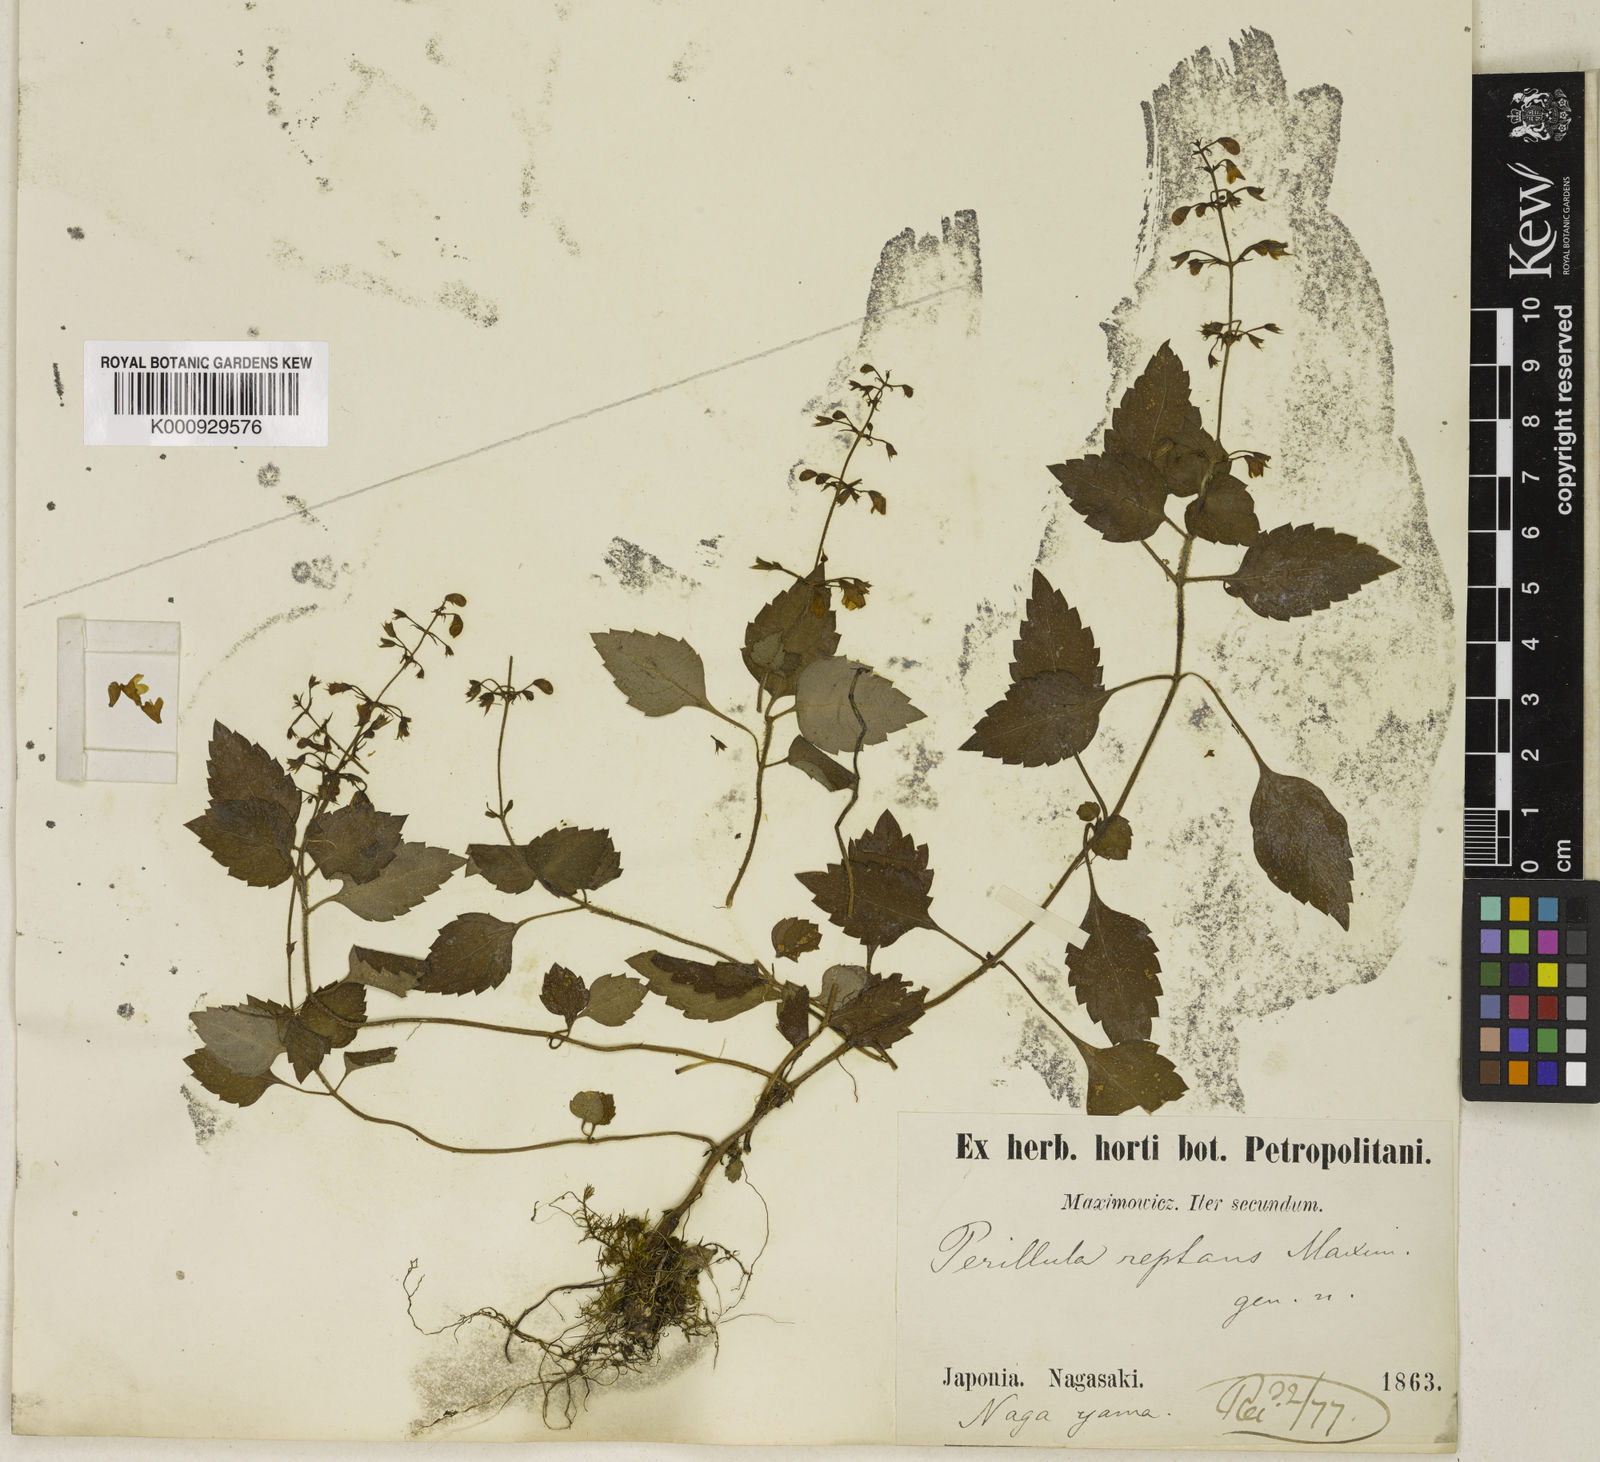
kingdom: Plantae
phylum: Tracheophyta
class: Magnoliopsida
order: Lamiales
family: Lamiaceae
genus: Perillula
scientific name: Perillula reptans
